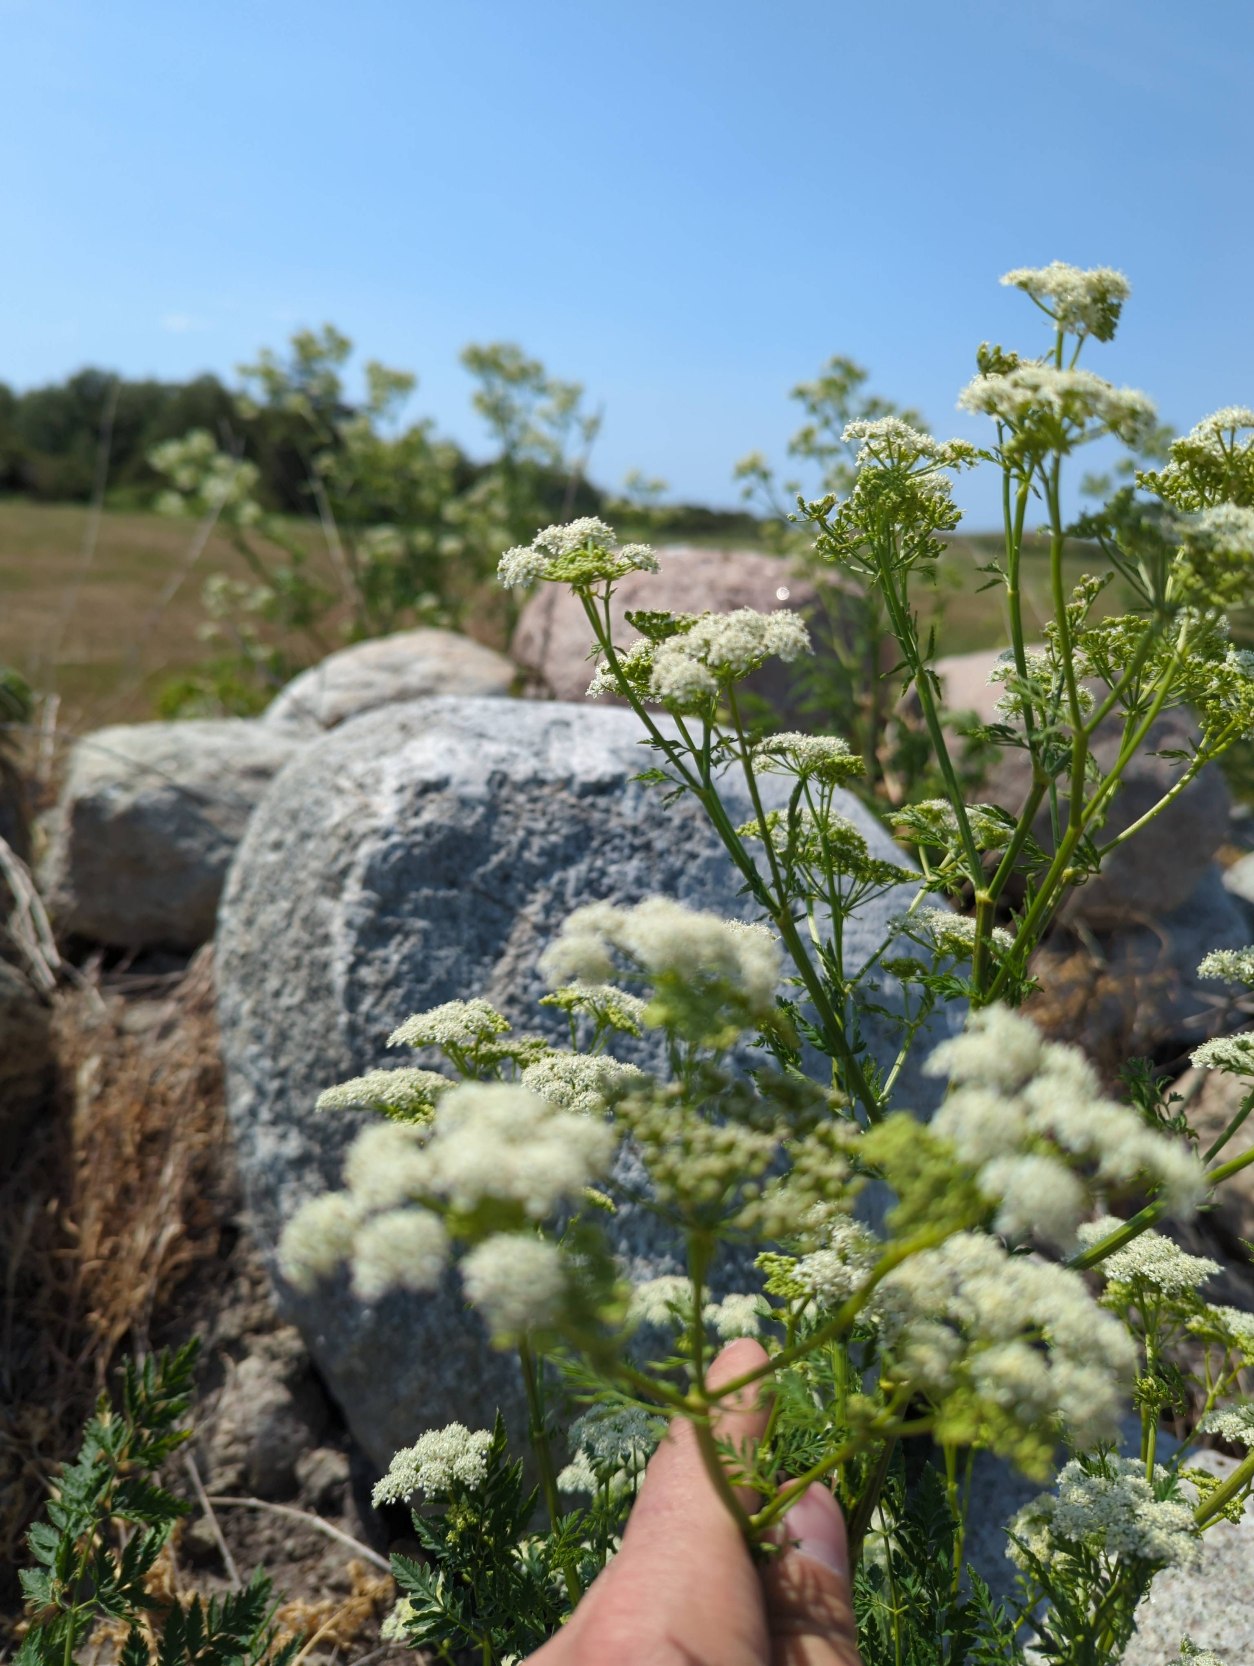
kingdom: Plantae
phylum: Tracheophyta
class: Magnoliopsida
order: Apiales
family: Apiaceae
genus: Conium
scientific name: Conium maculatum
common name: Skarntyde
